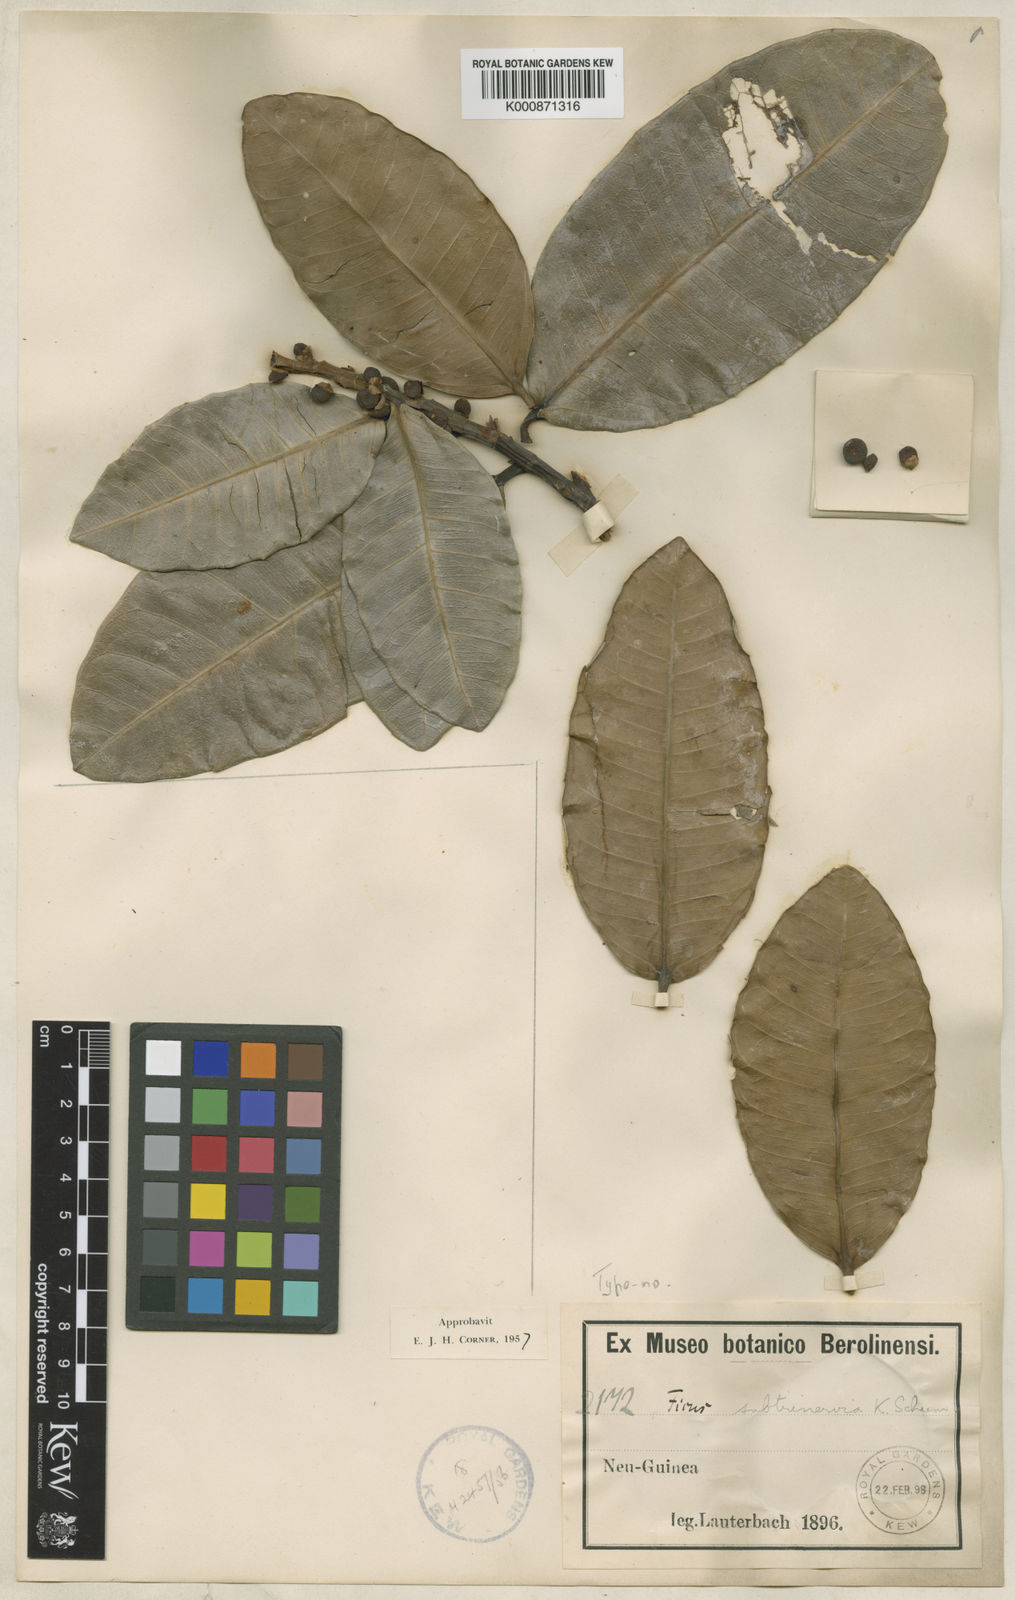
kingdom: Plantae
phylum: Tracheophyta
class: Magnoliopsida
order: Rosales
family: Moraceae
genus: Ficus
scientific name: Ficus subtrinervia
